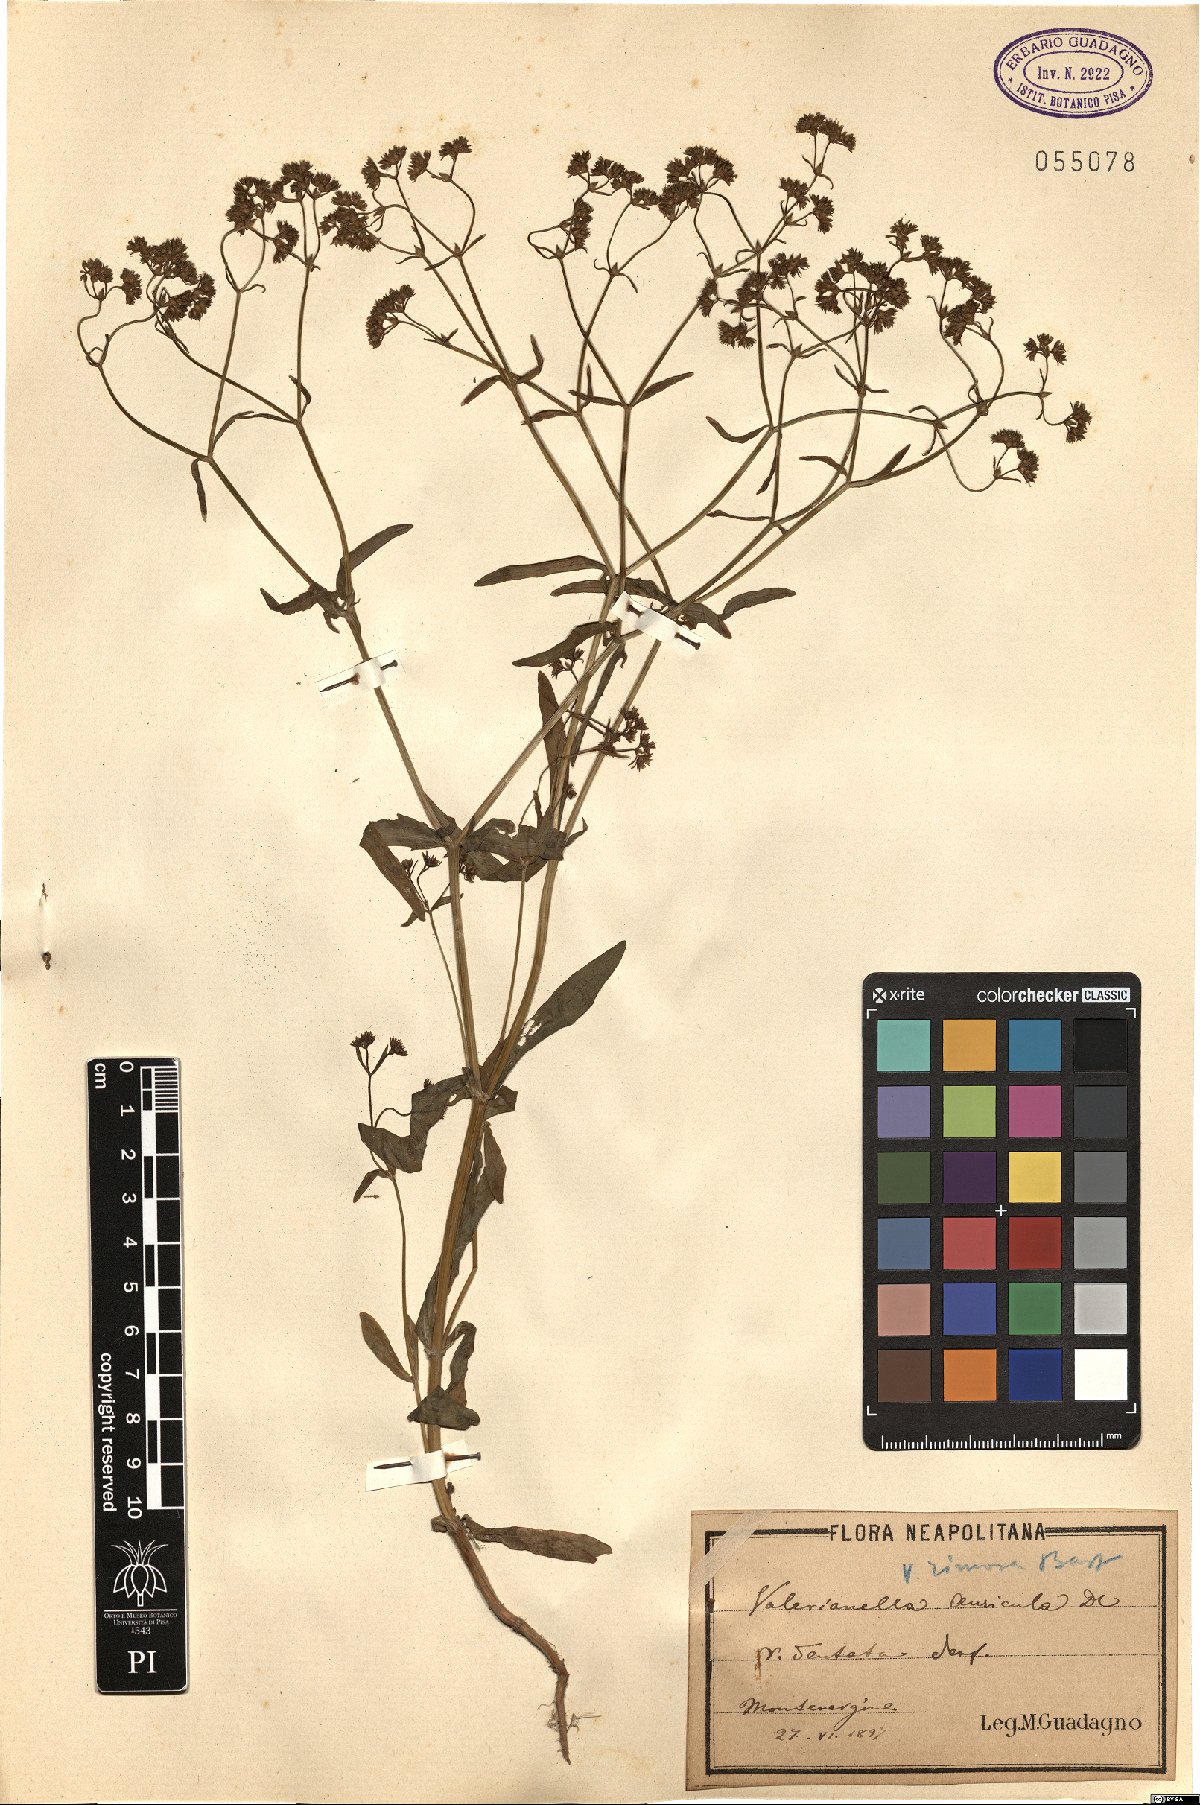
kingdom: Plantae
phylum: Tracheophyta
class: Magnoliopsida
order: Dipsacales
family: Caprifoliaceae
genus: Valerianella
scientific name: Valerianella rimosa
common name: Broad-fruited cornsalad
